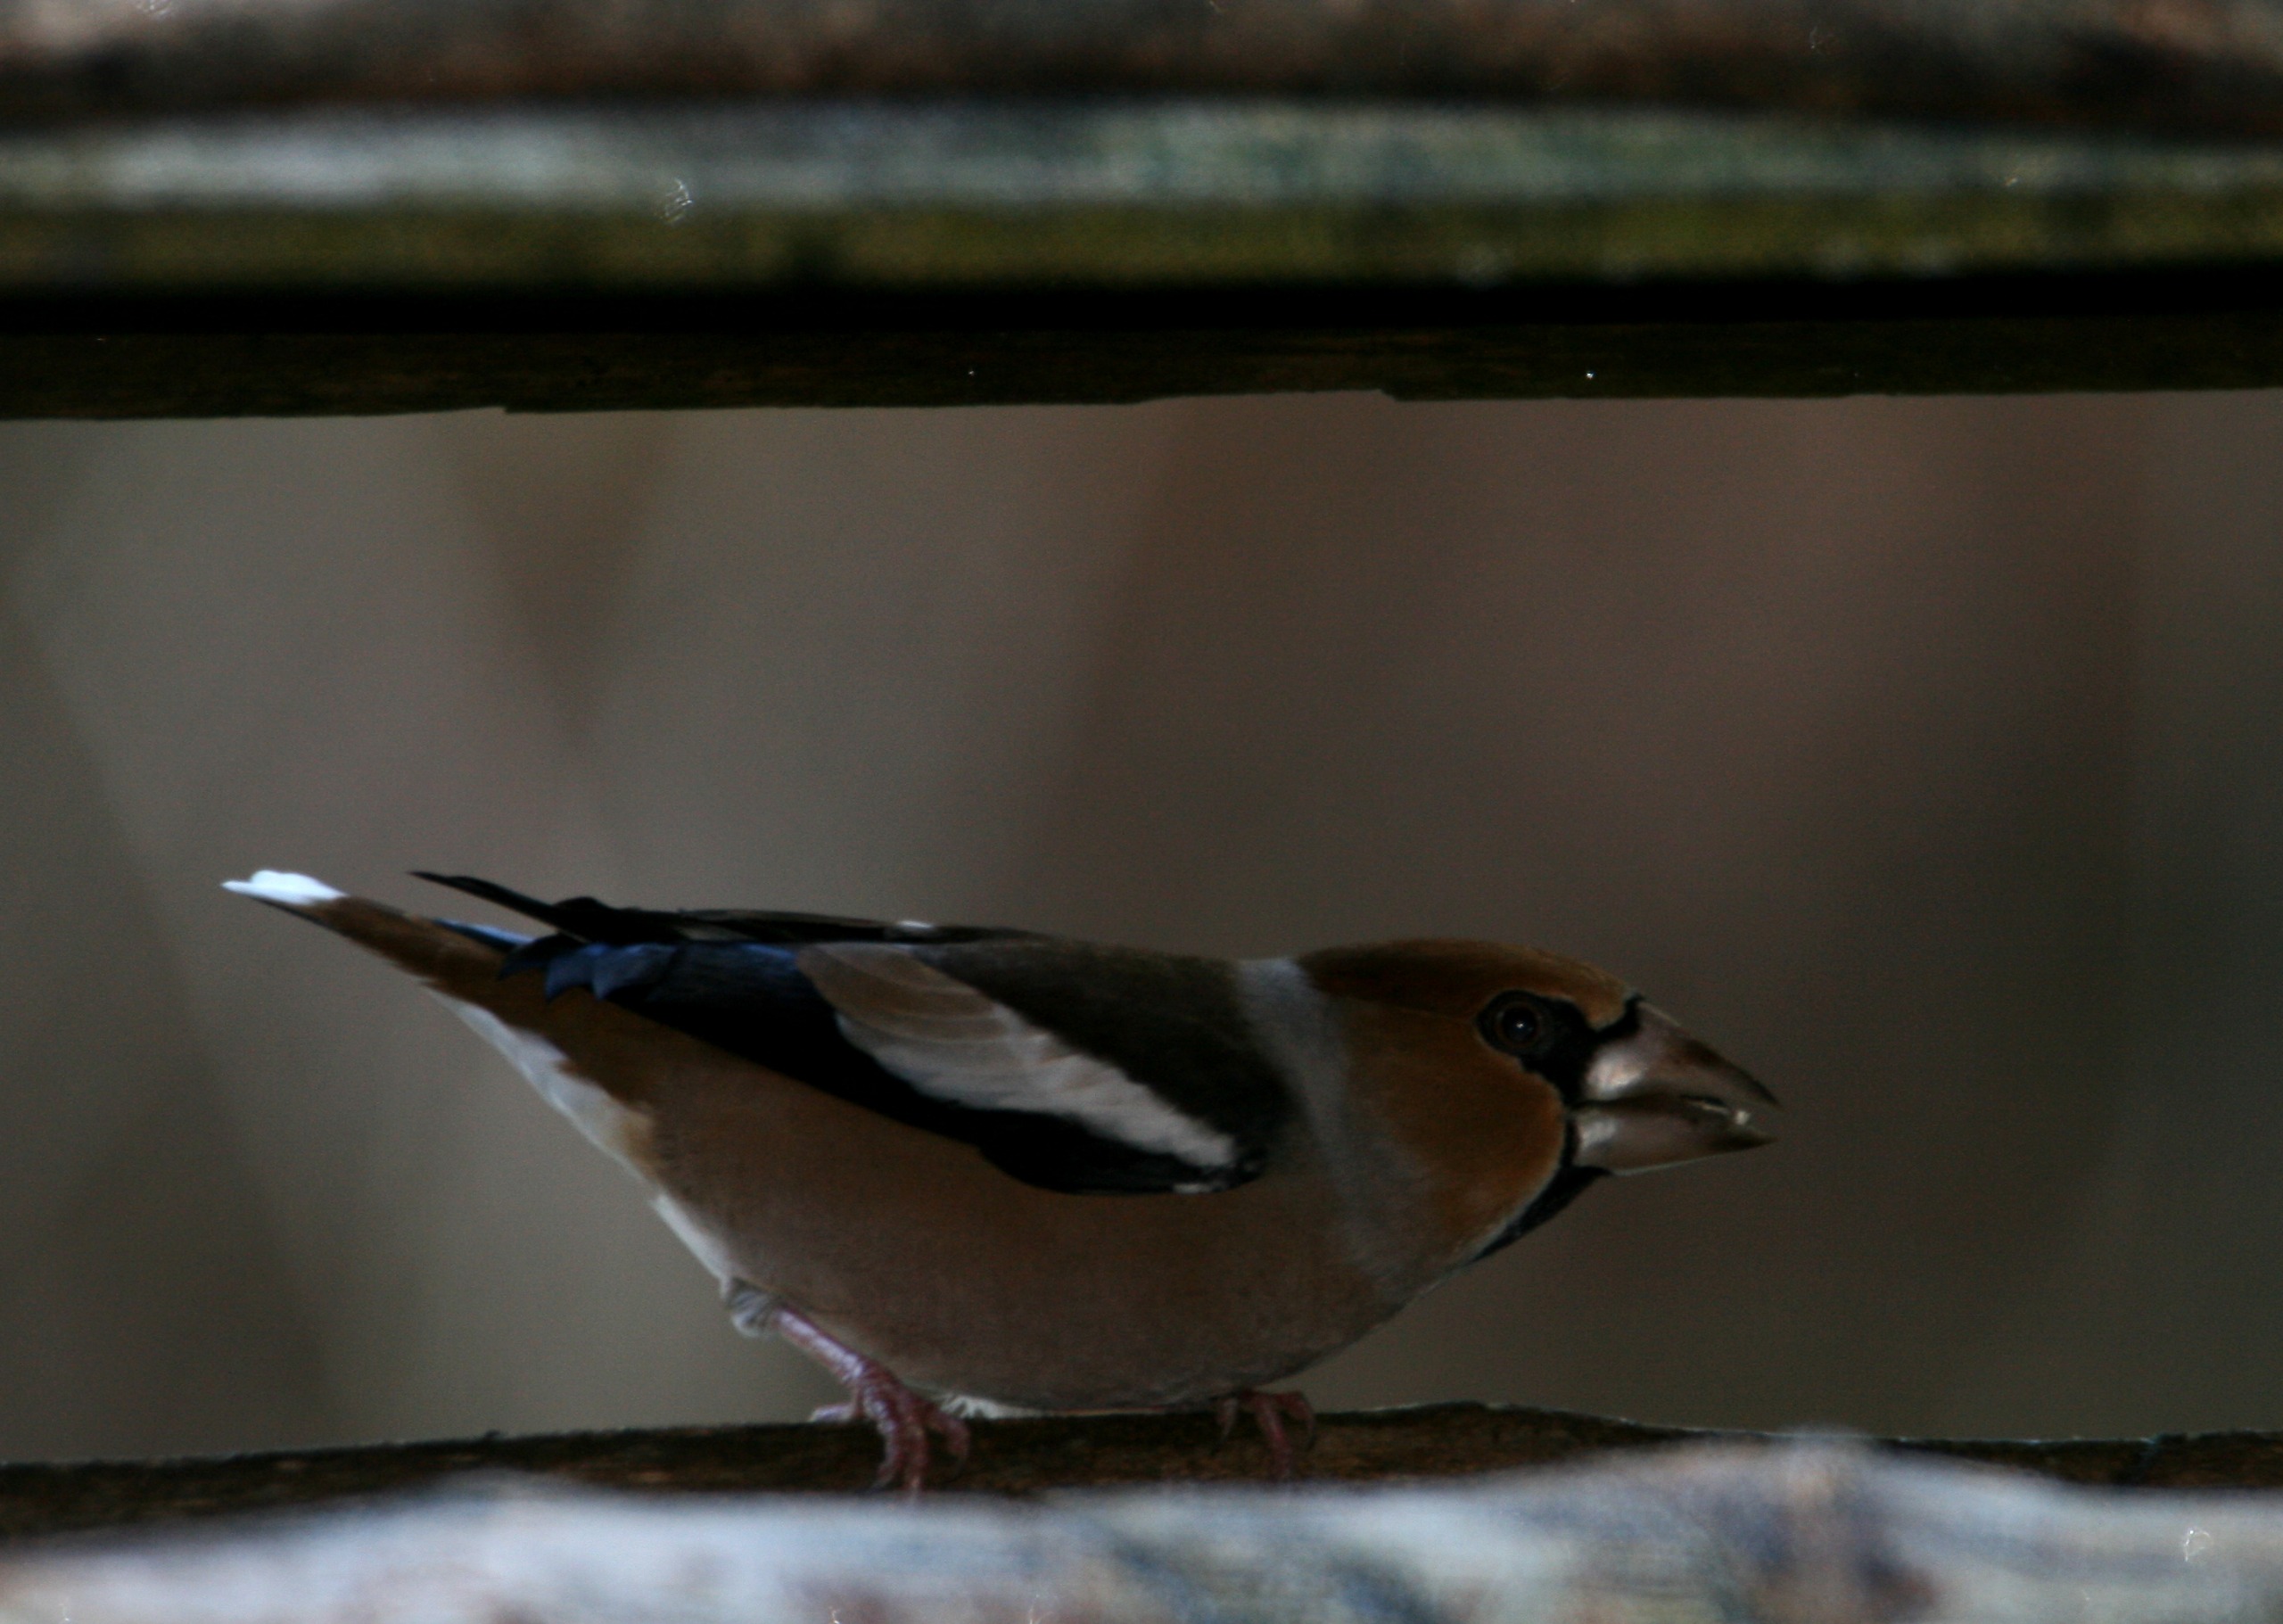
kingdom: Animalia
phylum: Chordata
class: Aves
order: Passeriformes
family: Fringillidae
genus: Coccothraustes
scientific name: Coccothraustes coccothraustes
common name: Kernebider
